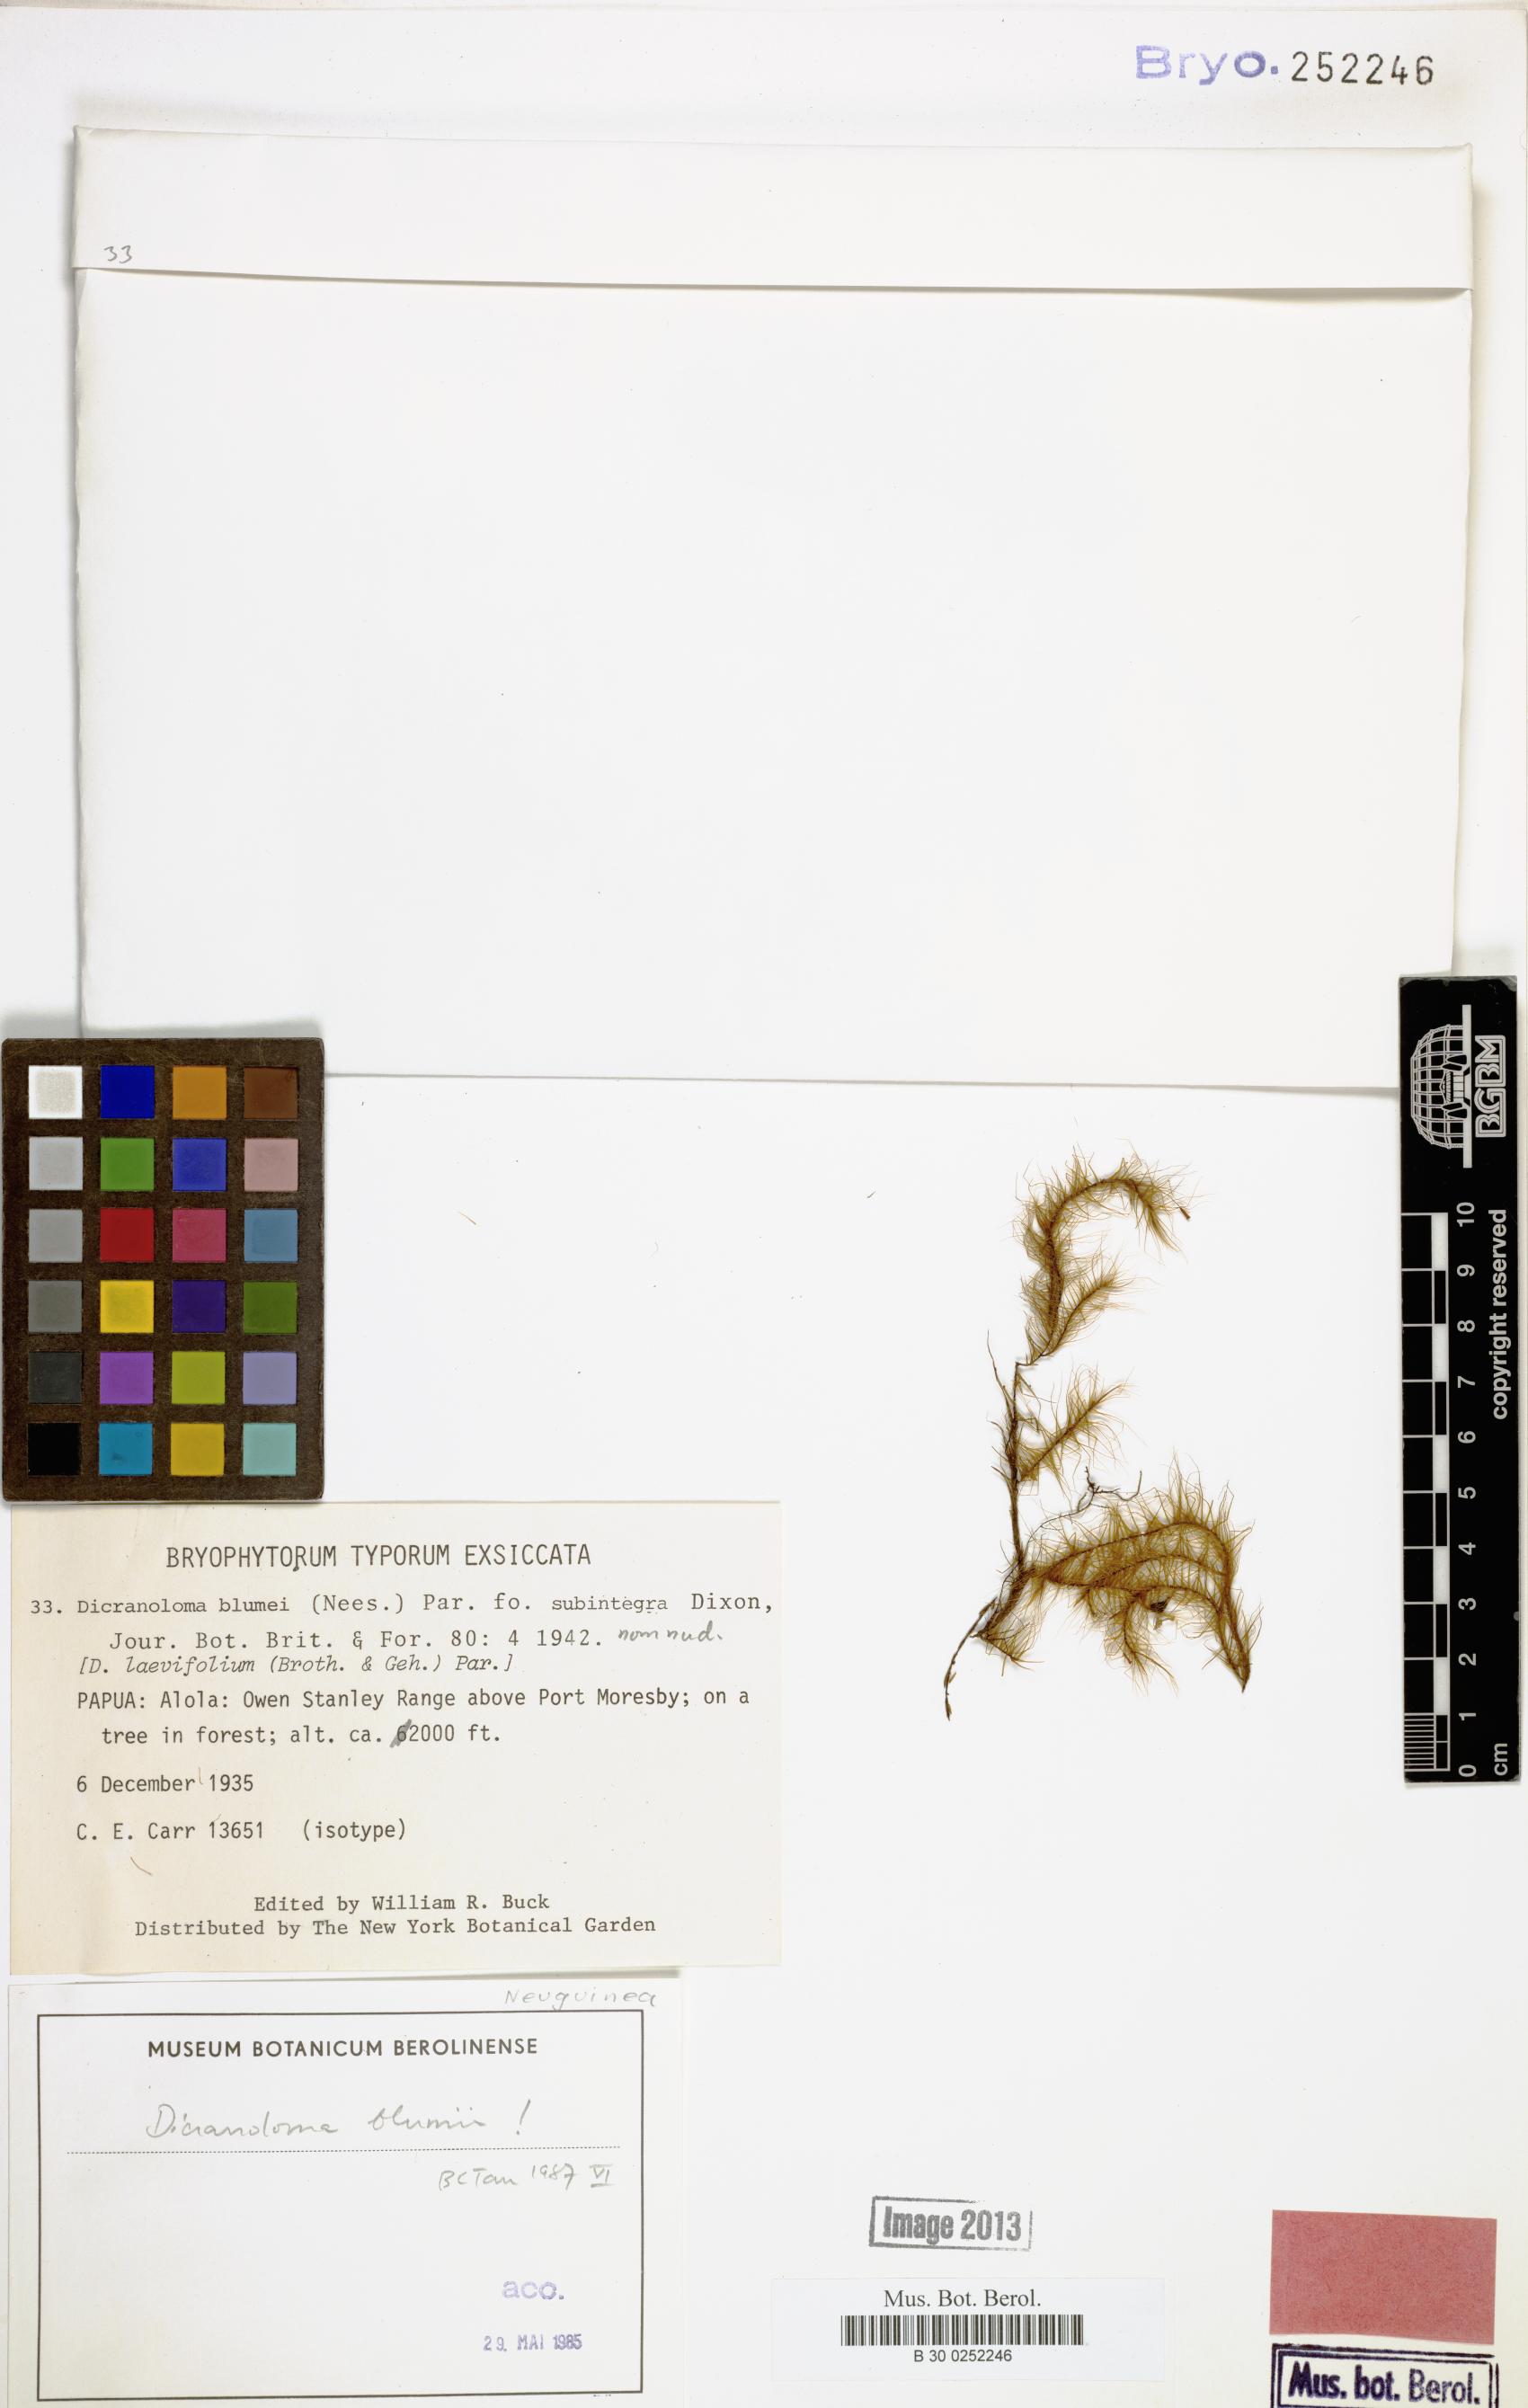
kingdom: Plantae
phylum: Bryophyta
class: Bryopsida
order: Dicranales
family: Dicranaceae
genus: Dicranoloma
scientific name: Dicranoloma blumii
